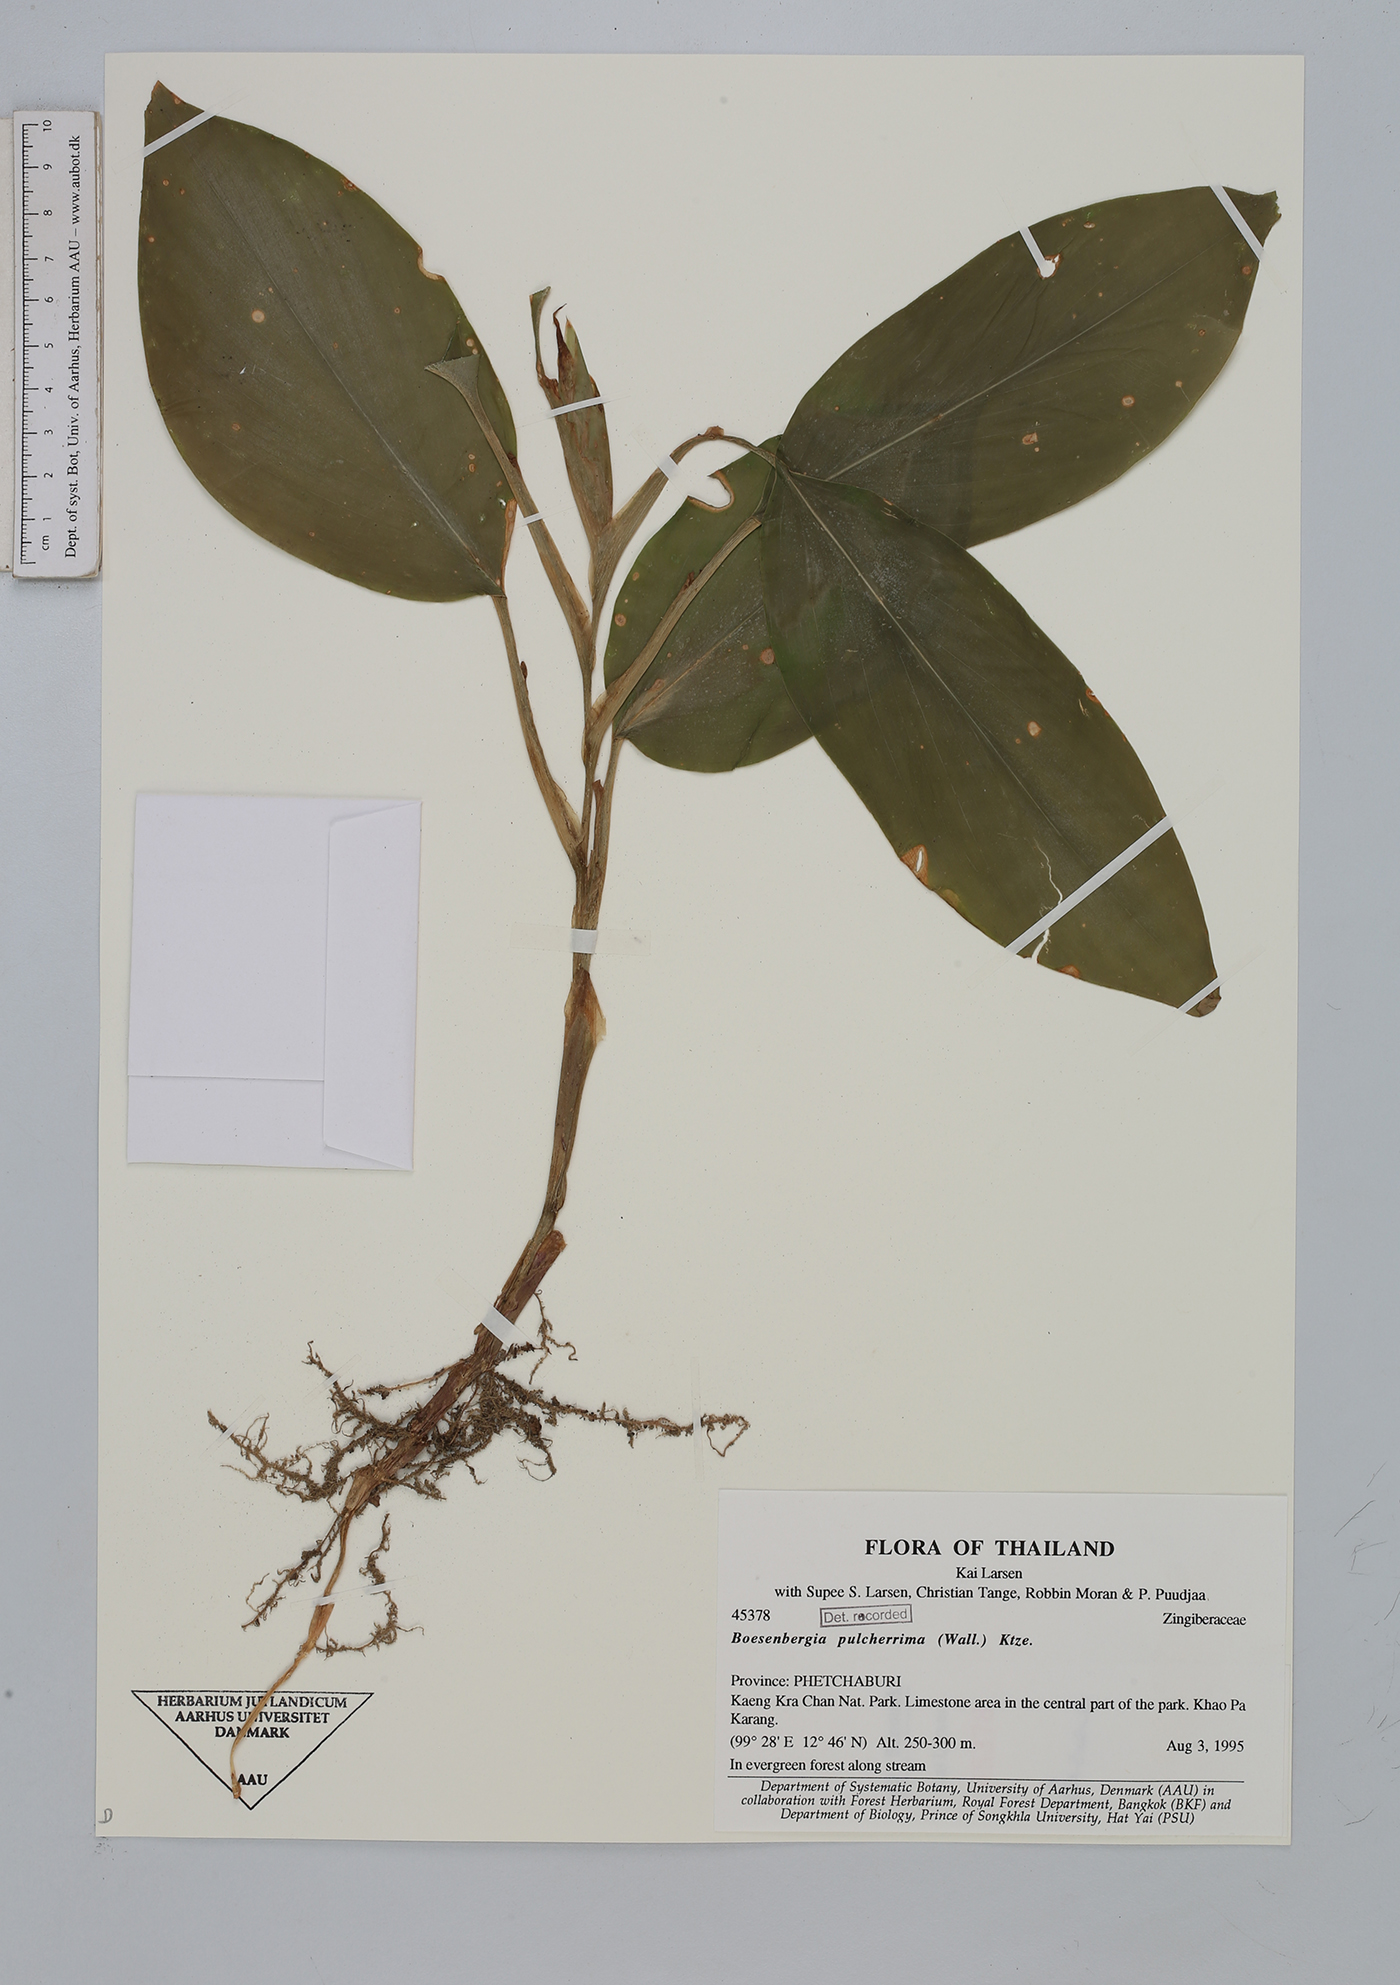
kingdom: Plantae
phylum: Tracheophyta
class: Liliopsida
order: Zingiberales
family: Zingiberaceae
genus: Boesenbergia
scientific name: Boesenbergia pulcherrima
